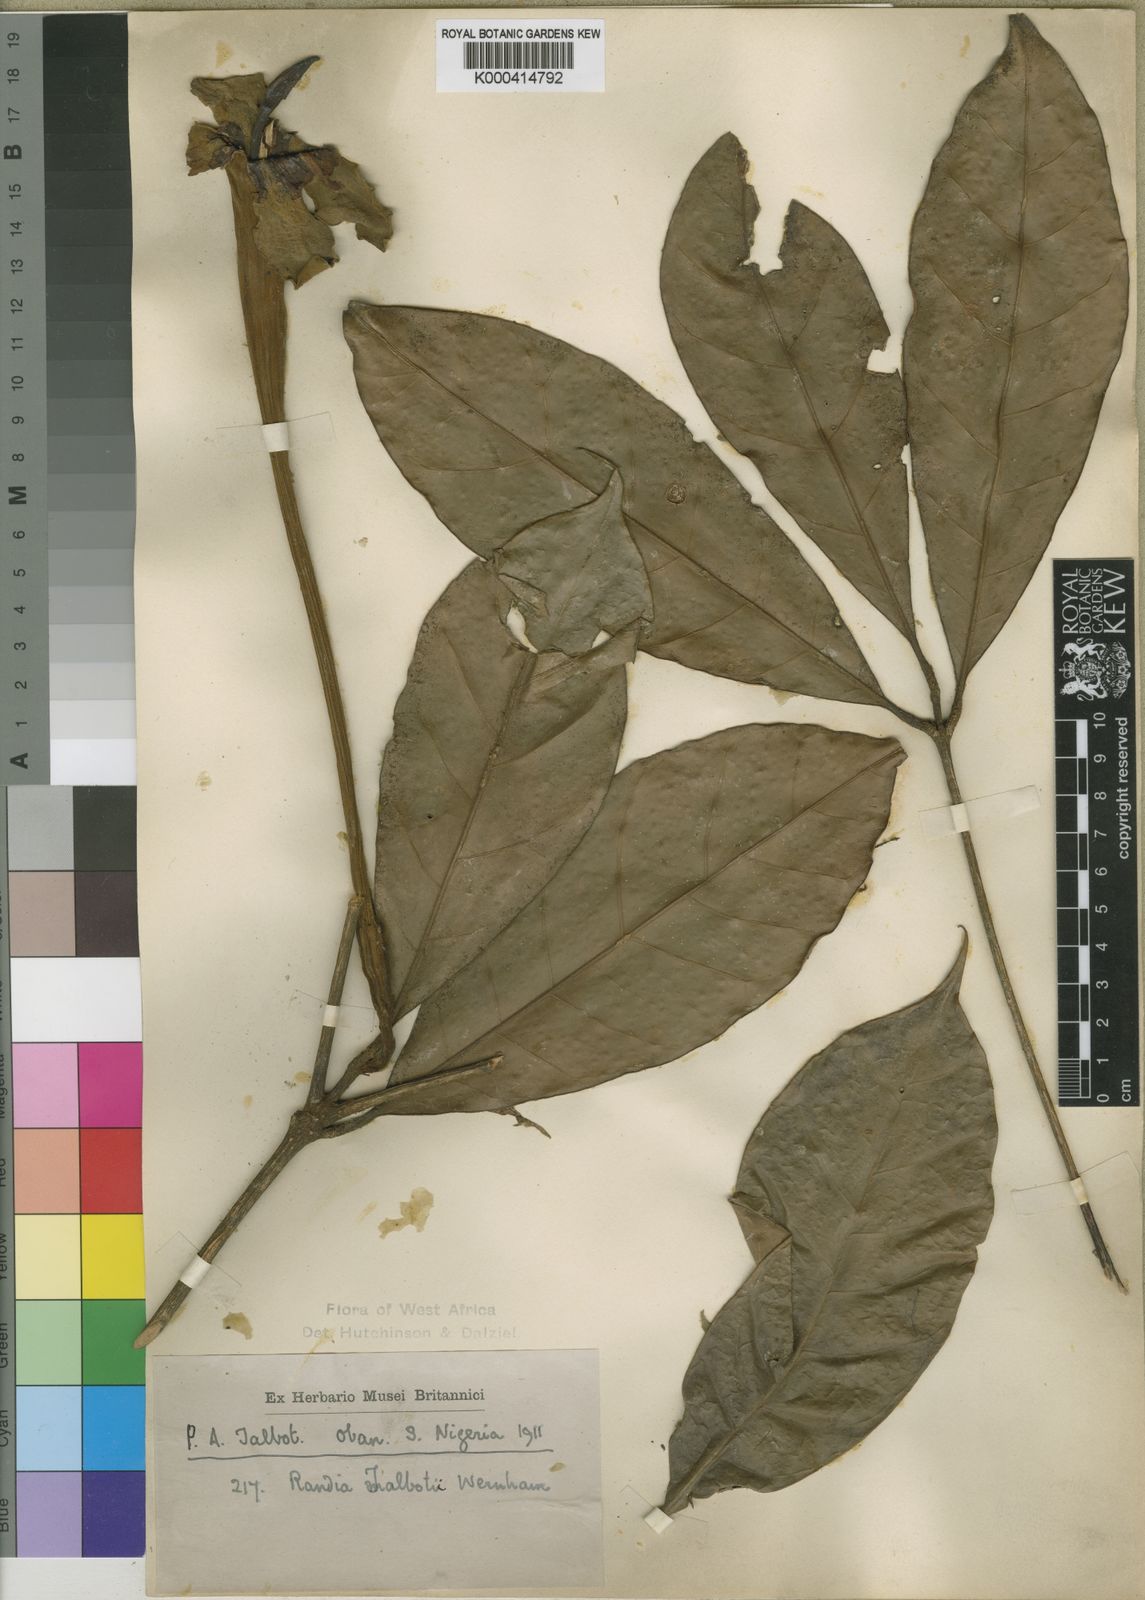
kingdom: Plantae
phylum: Tracheophyta
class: Magnoliopsida
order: Gentianales
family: Rubiaceae
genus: Rothmannia
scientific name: Rothmannia talbotii
